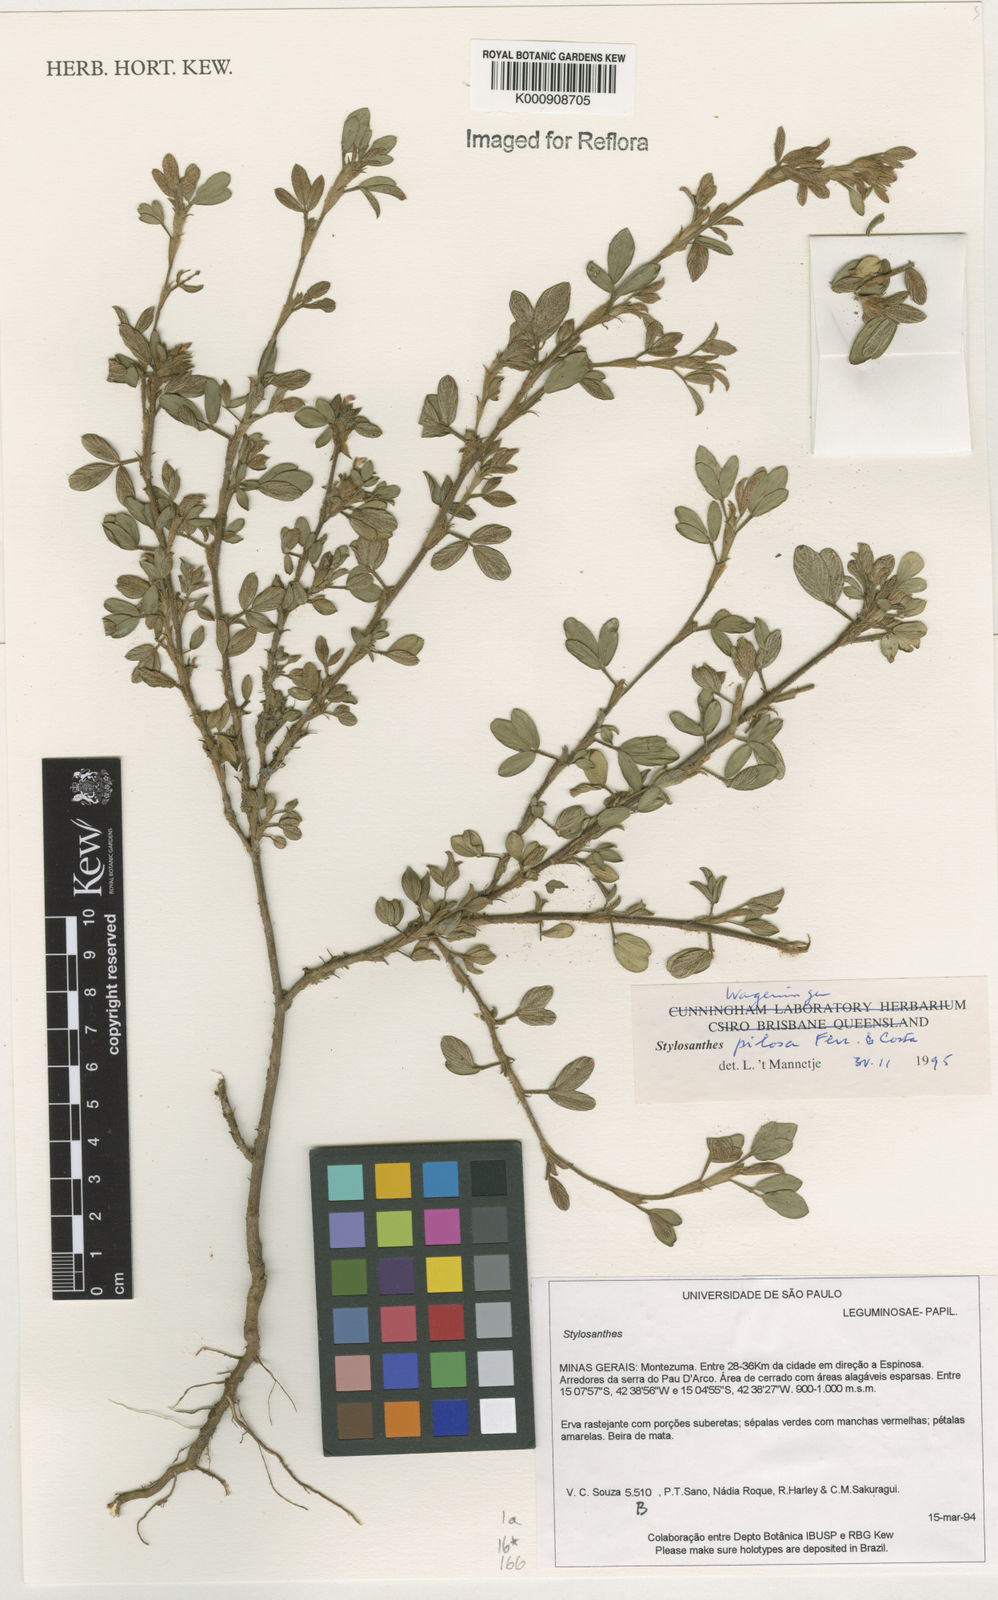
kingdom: Plantae
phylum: Tracheophyta
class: Magnoliopsida
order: Fabales
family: Fabaceae
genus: Stylosanthes
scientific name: Stylosanthes viscosa
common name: Viscid pencil-flower
